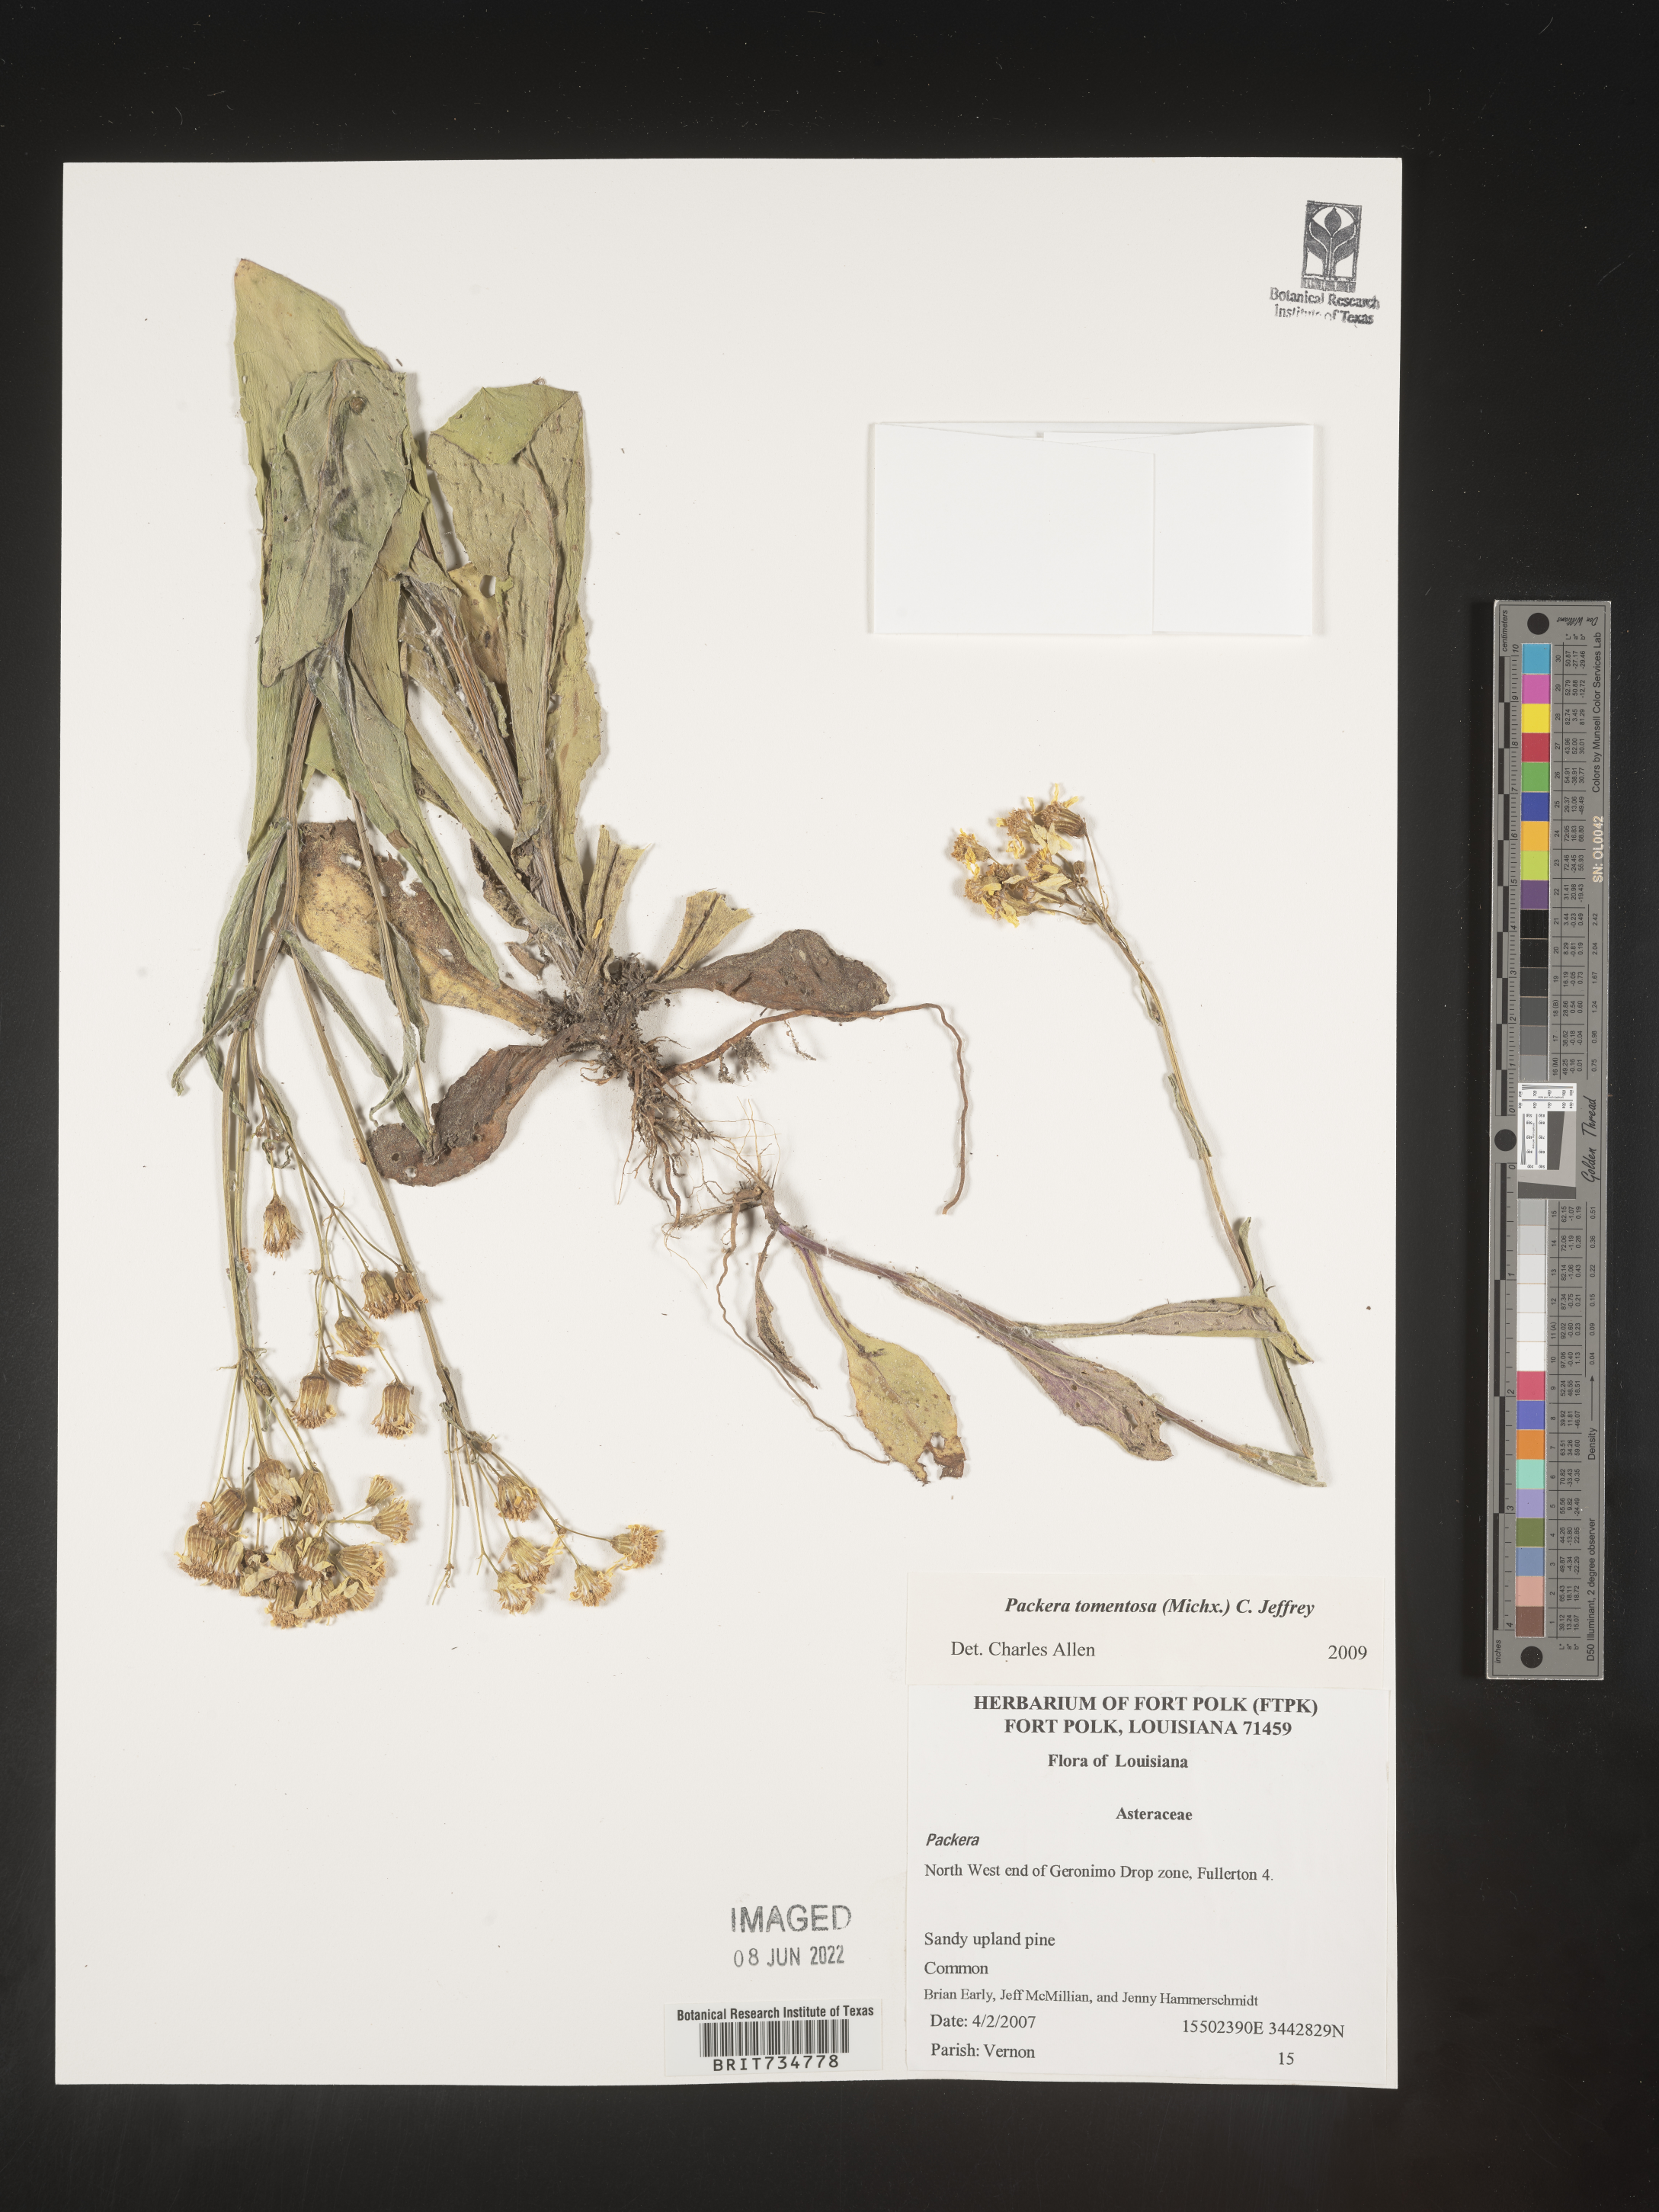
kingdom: Plantae
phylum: Tracheophyta
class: Magnoliopsida
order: Asterales
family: Asteraceae
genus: Packera
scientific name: Packera dubia
